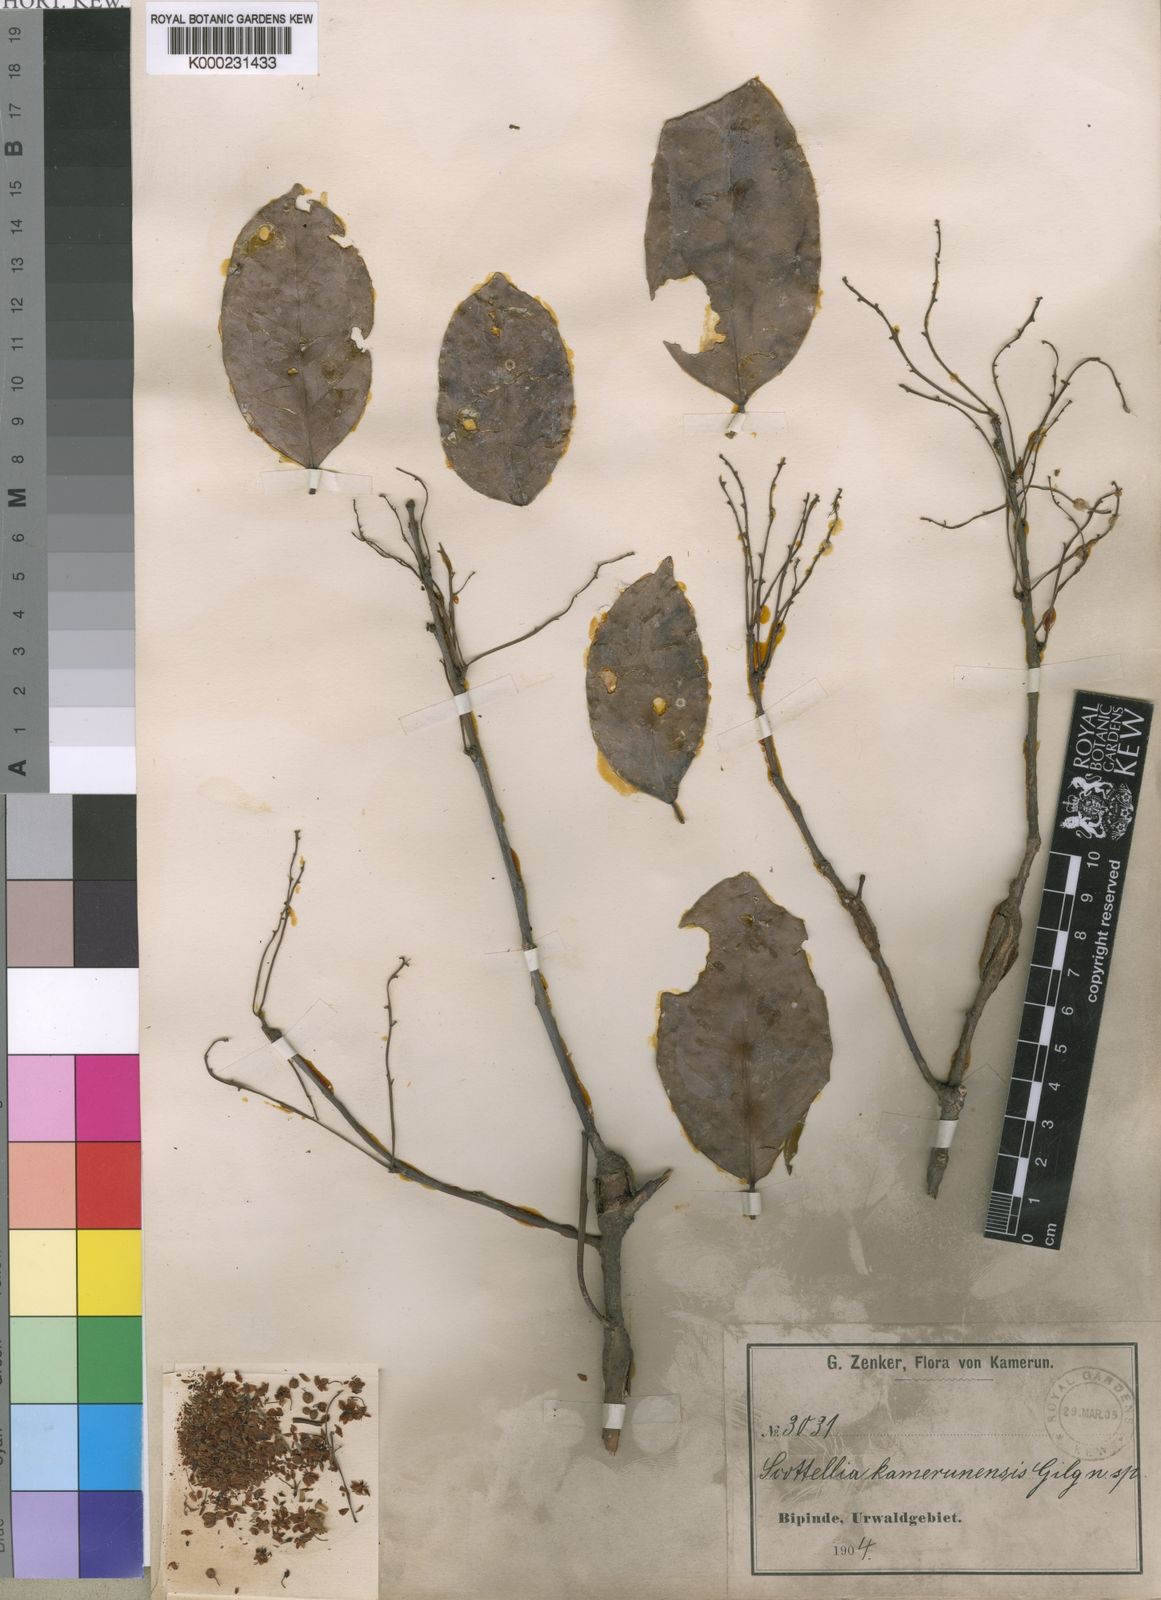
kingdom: Plantae
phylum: Tracheophyta
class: Magnoliopsida
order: Malpighiales
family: Achariaceae
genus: Scottellia
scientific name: Scottellia klaineana
